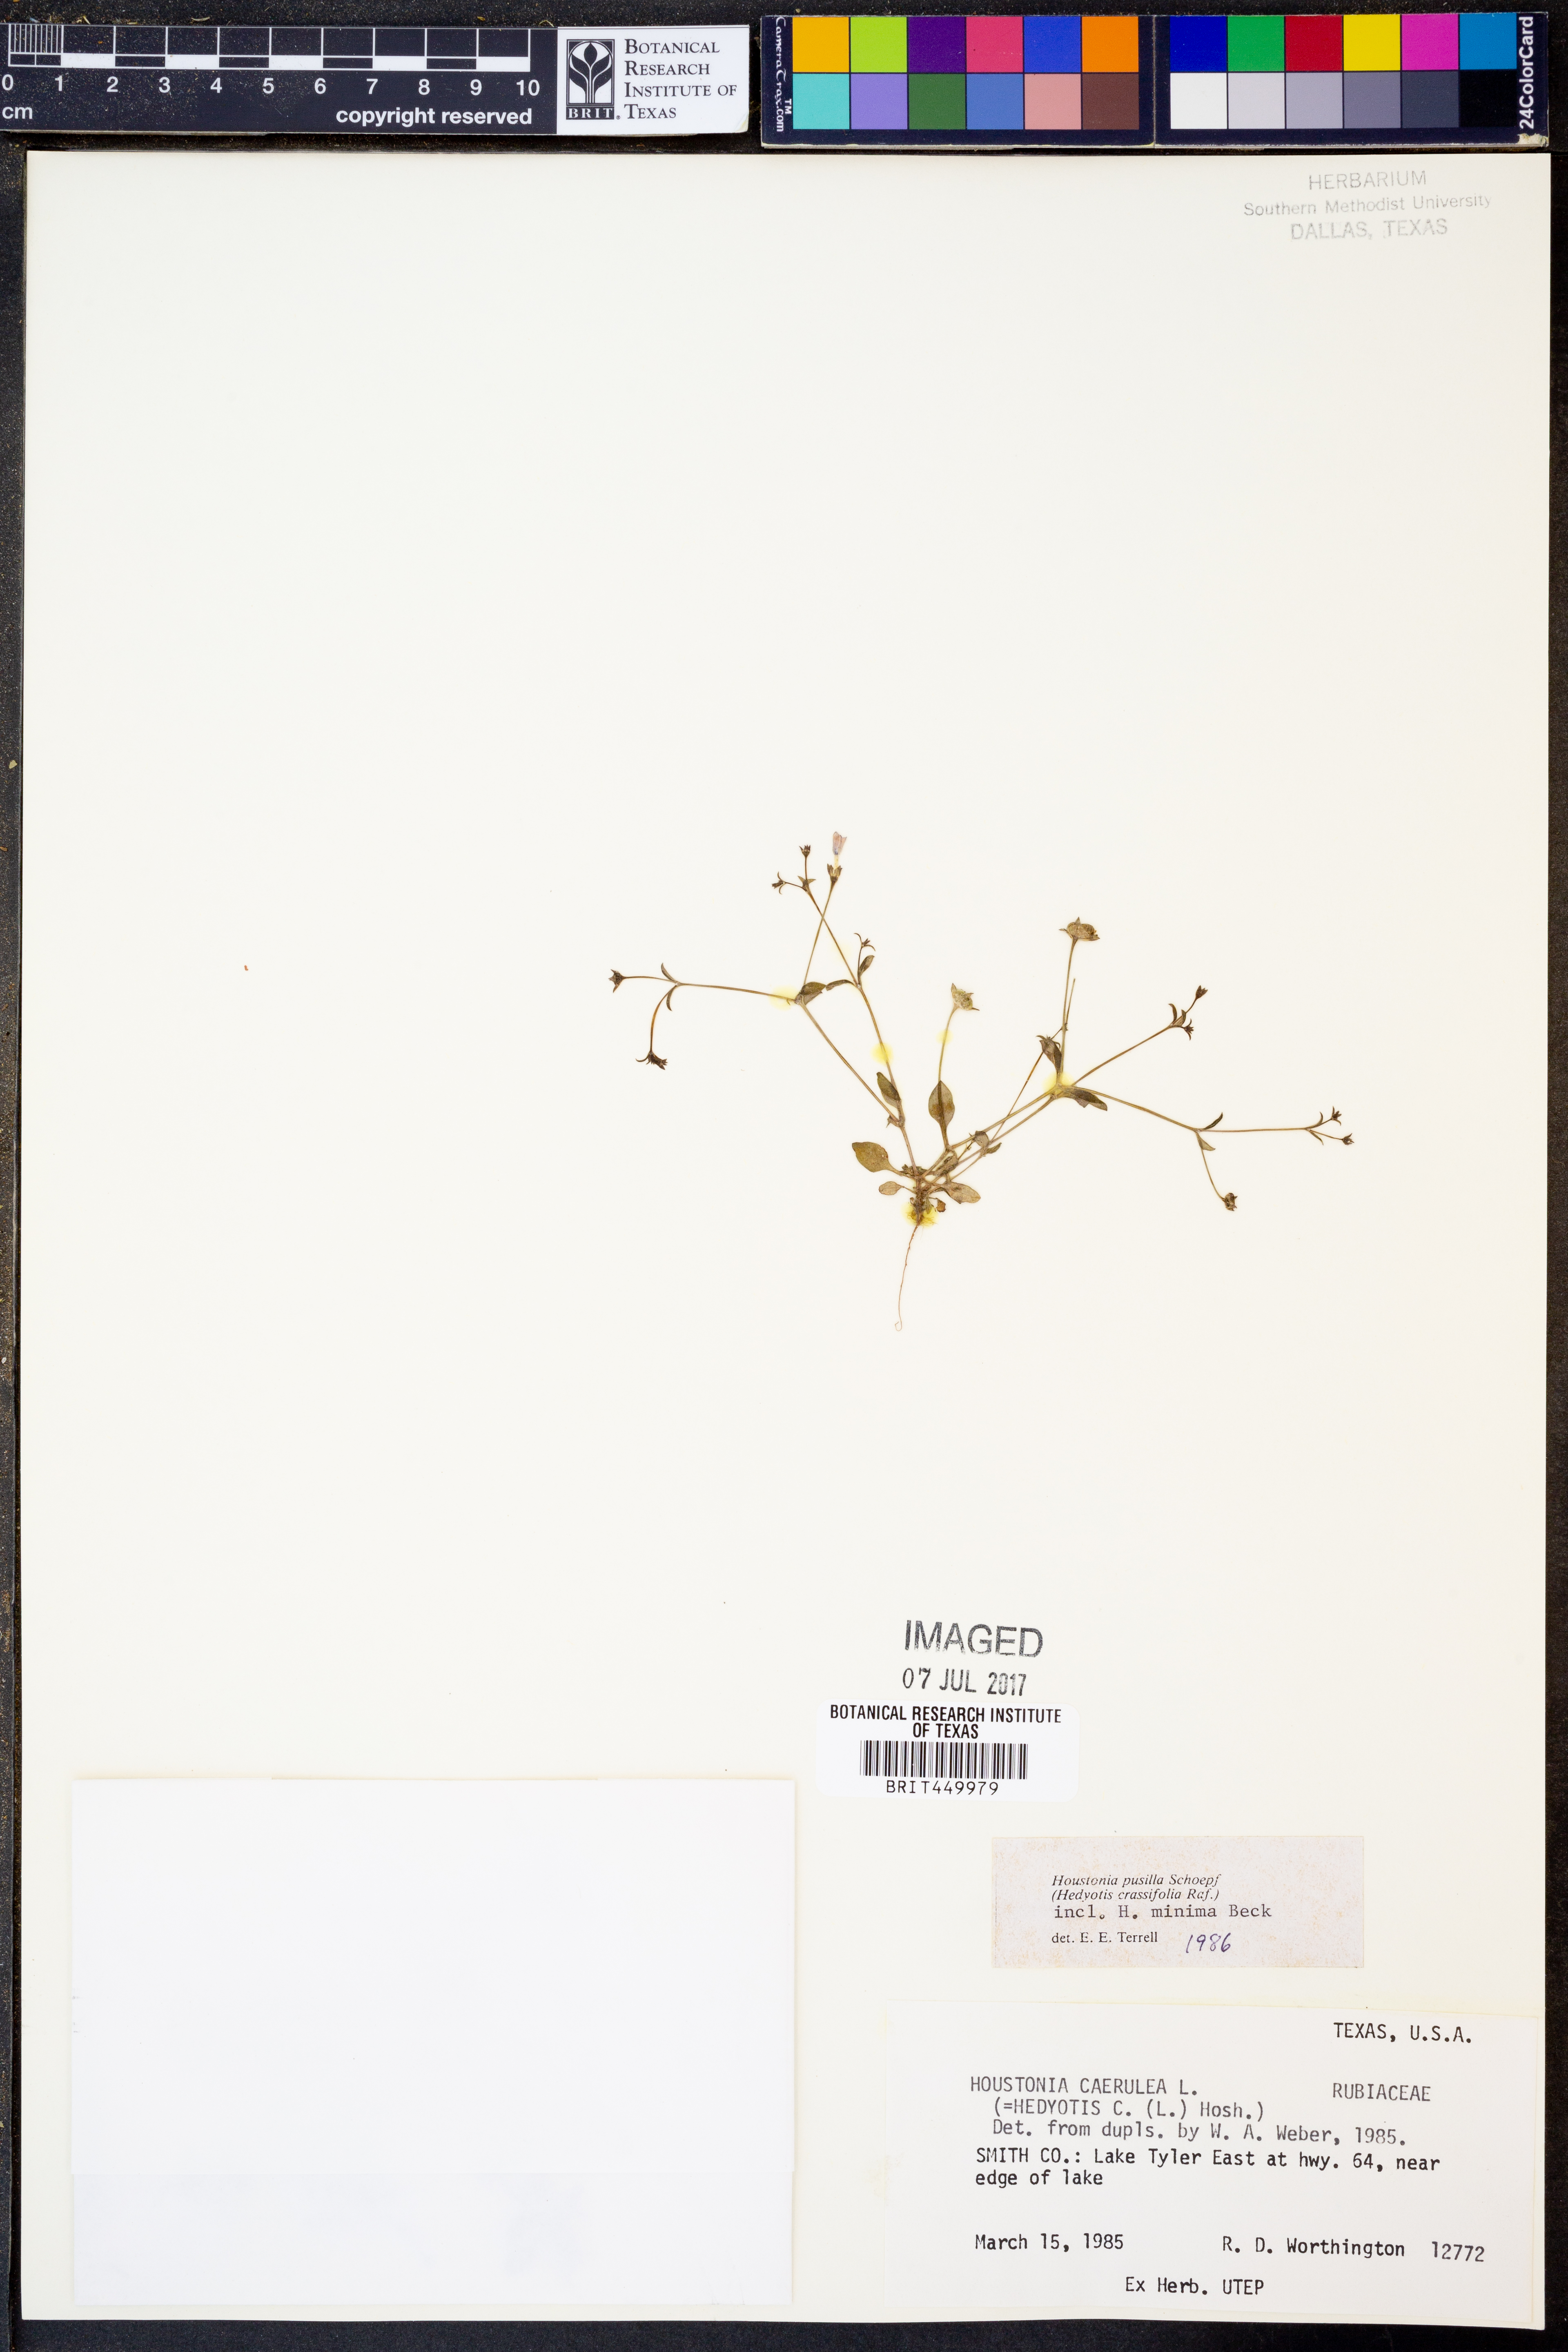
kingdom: Plantae
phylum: Tracheophyta
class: Magnoliopsida
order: Gentianales
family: Rubiaceae
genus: Houstonia
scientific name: Houstonia caerulea
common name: Bluets
